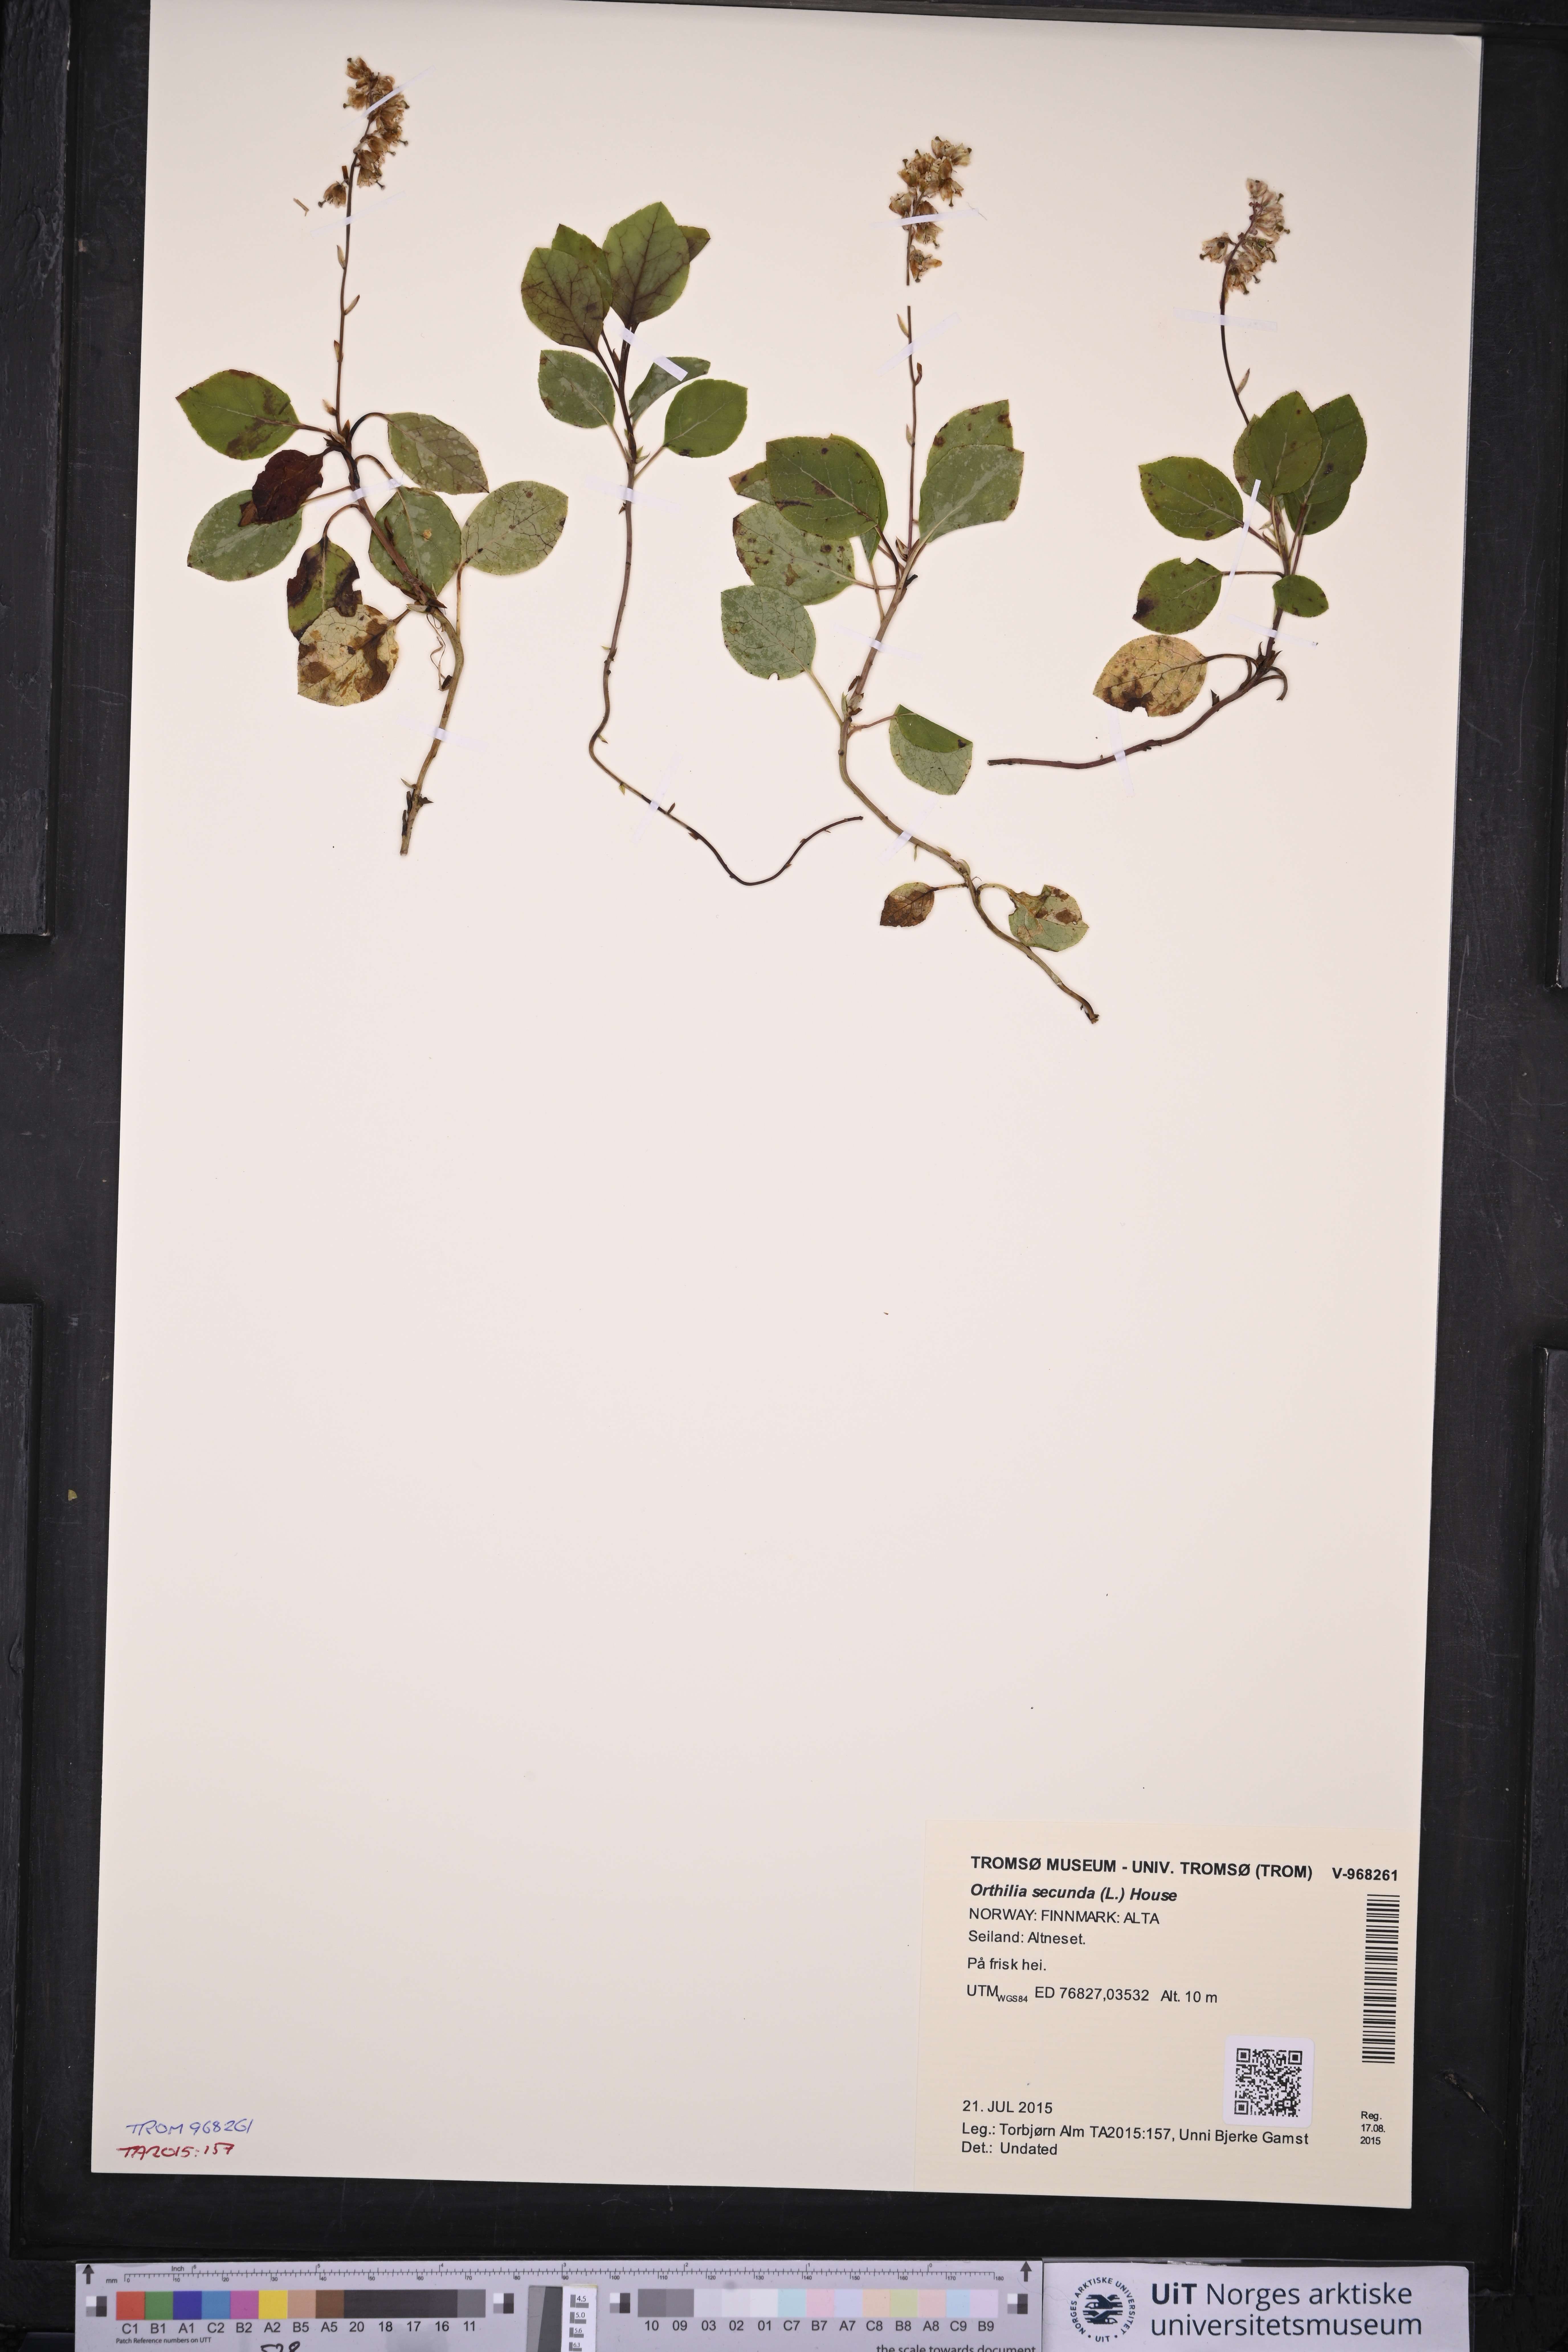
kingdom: Plantae
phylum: Tracheophyta
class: Magnoliopsida
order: Ericales
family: Ericaceae
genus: Orthilia
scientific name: Orthilia secunda
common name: One-sided orthilia
